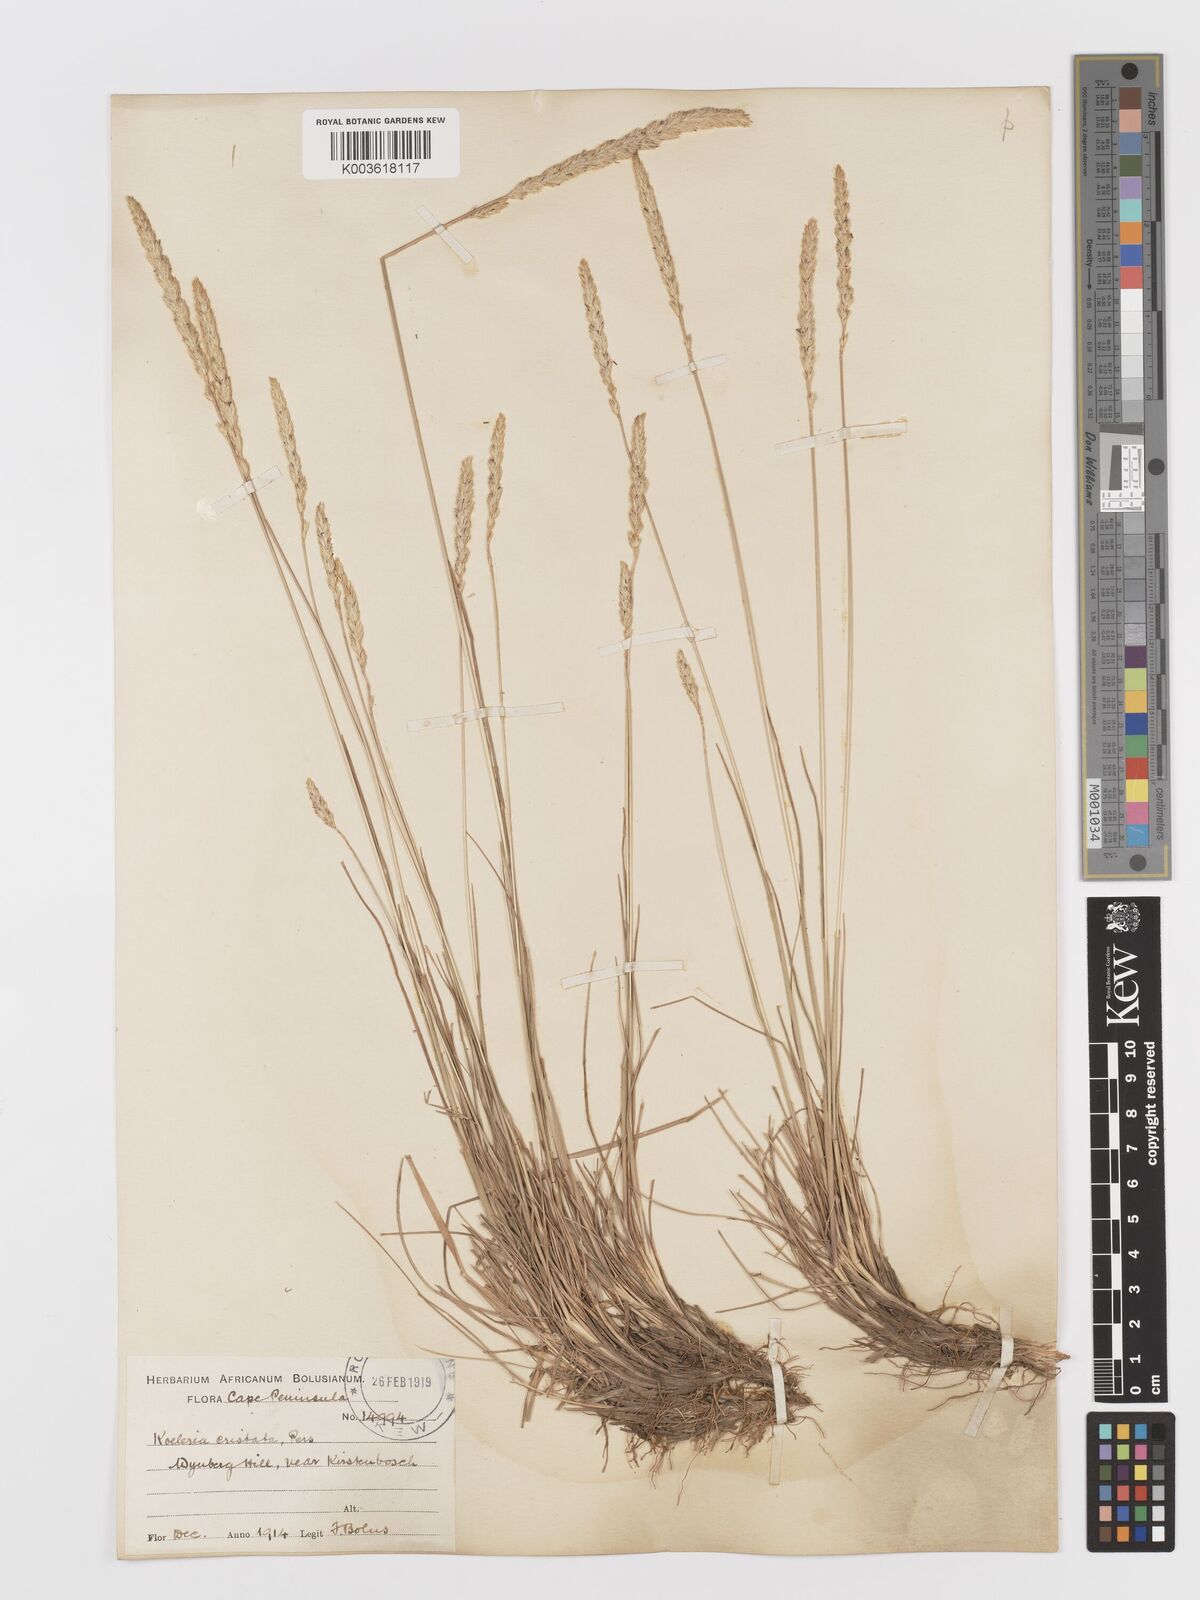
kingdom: Plantae
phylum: Tracheophyta
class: Liliopsida
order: Poales
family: Poaceae
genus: Koeleria
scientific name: Koeleria capensis
